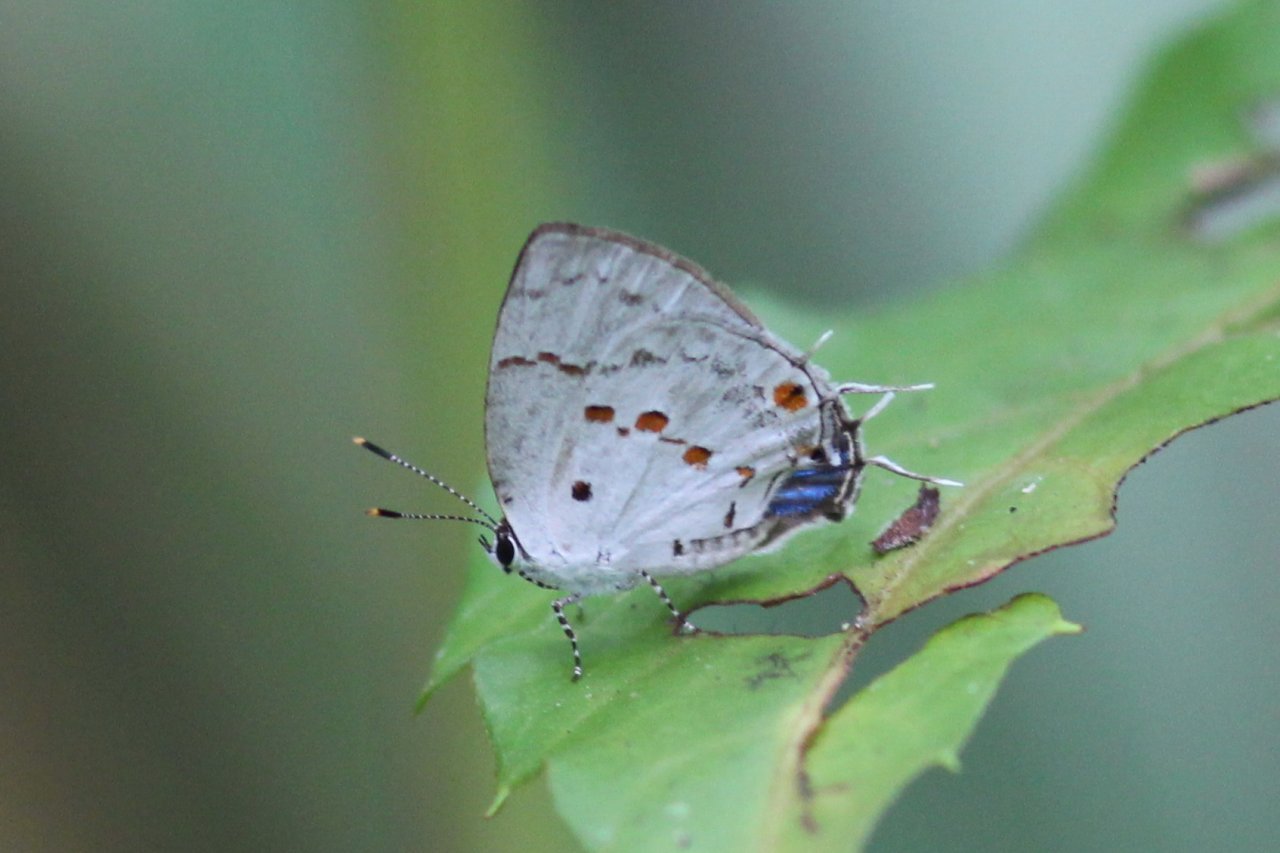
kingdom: Animalia
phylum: Arthropoda
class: Insecta
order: Lepidoptera
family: Lycaenidae
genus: Thecla
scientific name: Thecla celmus
